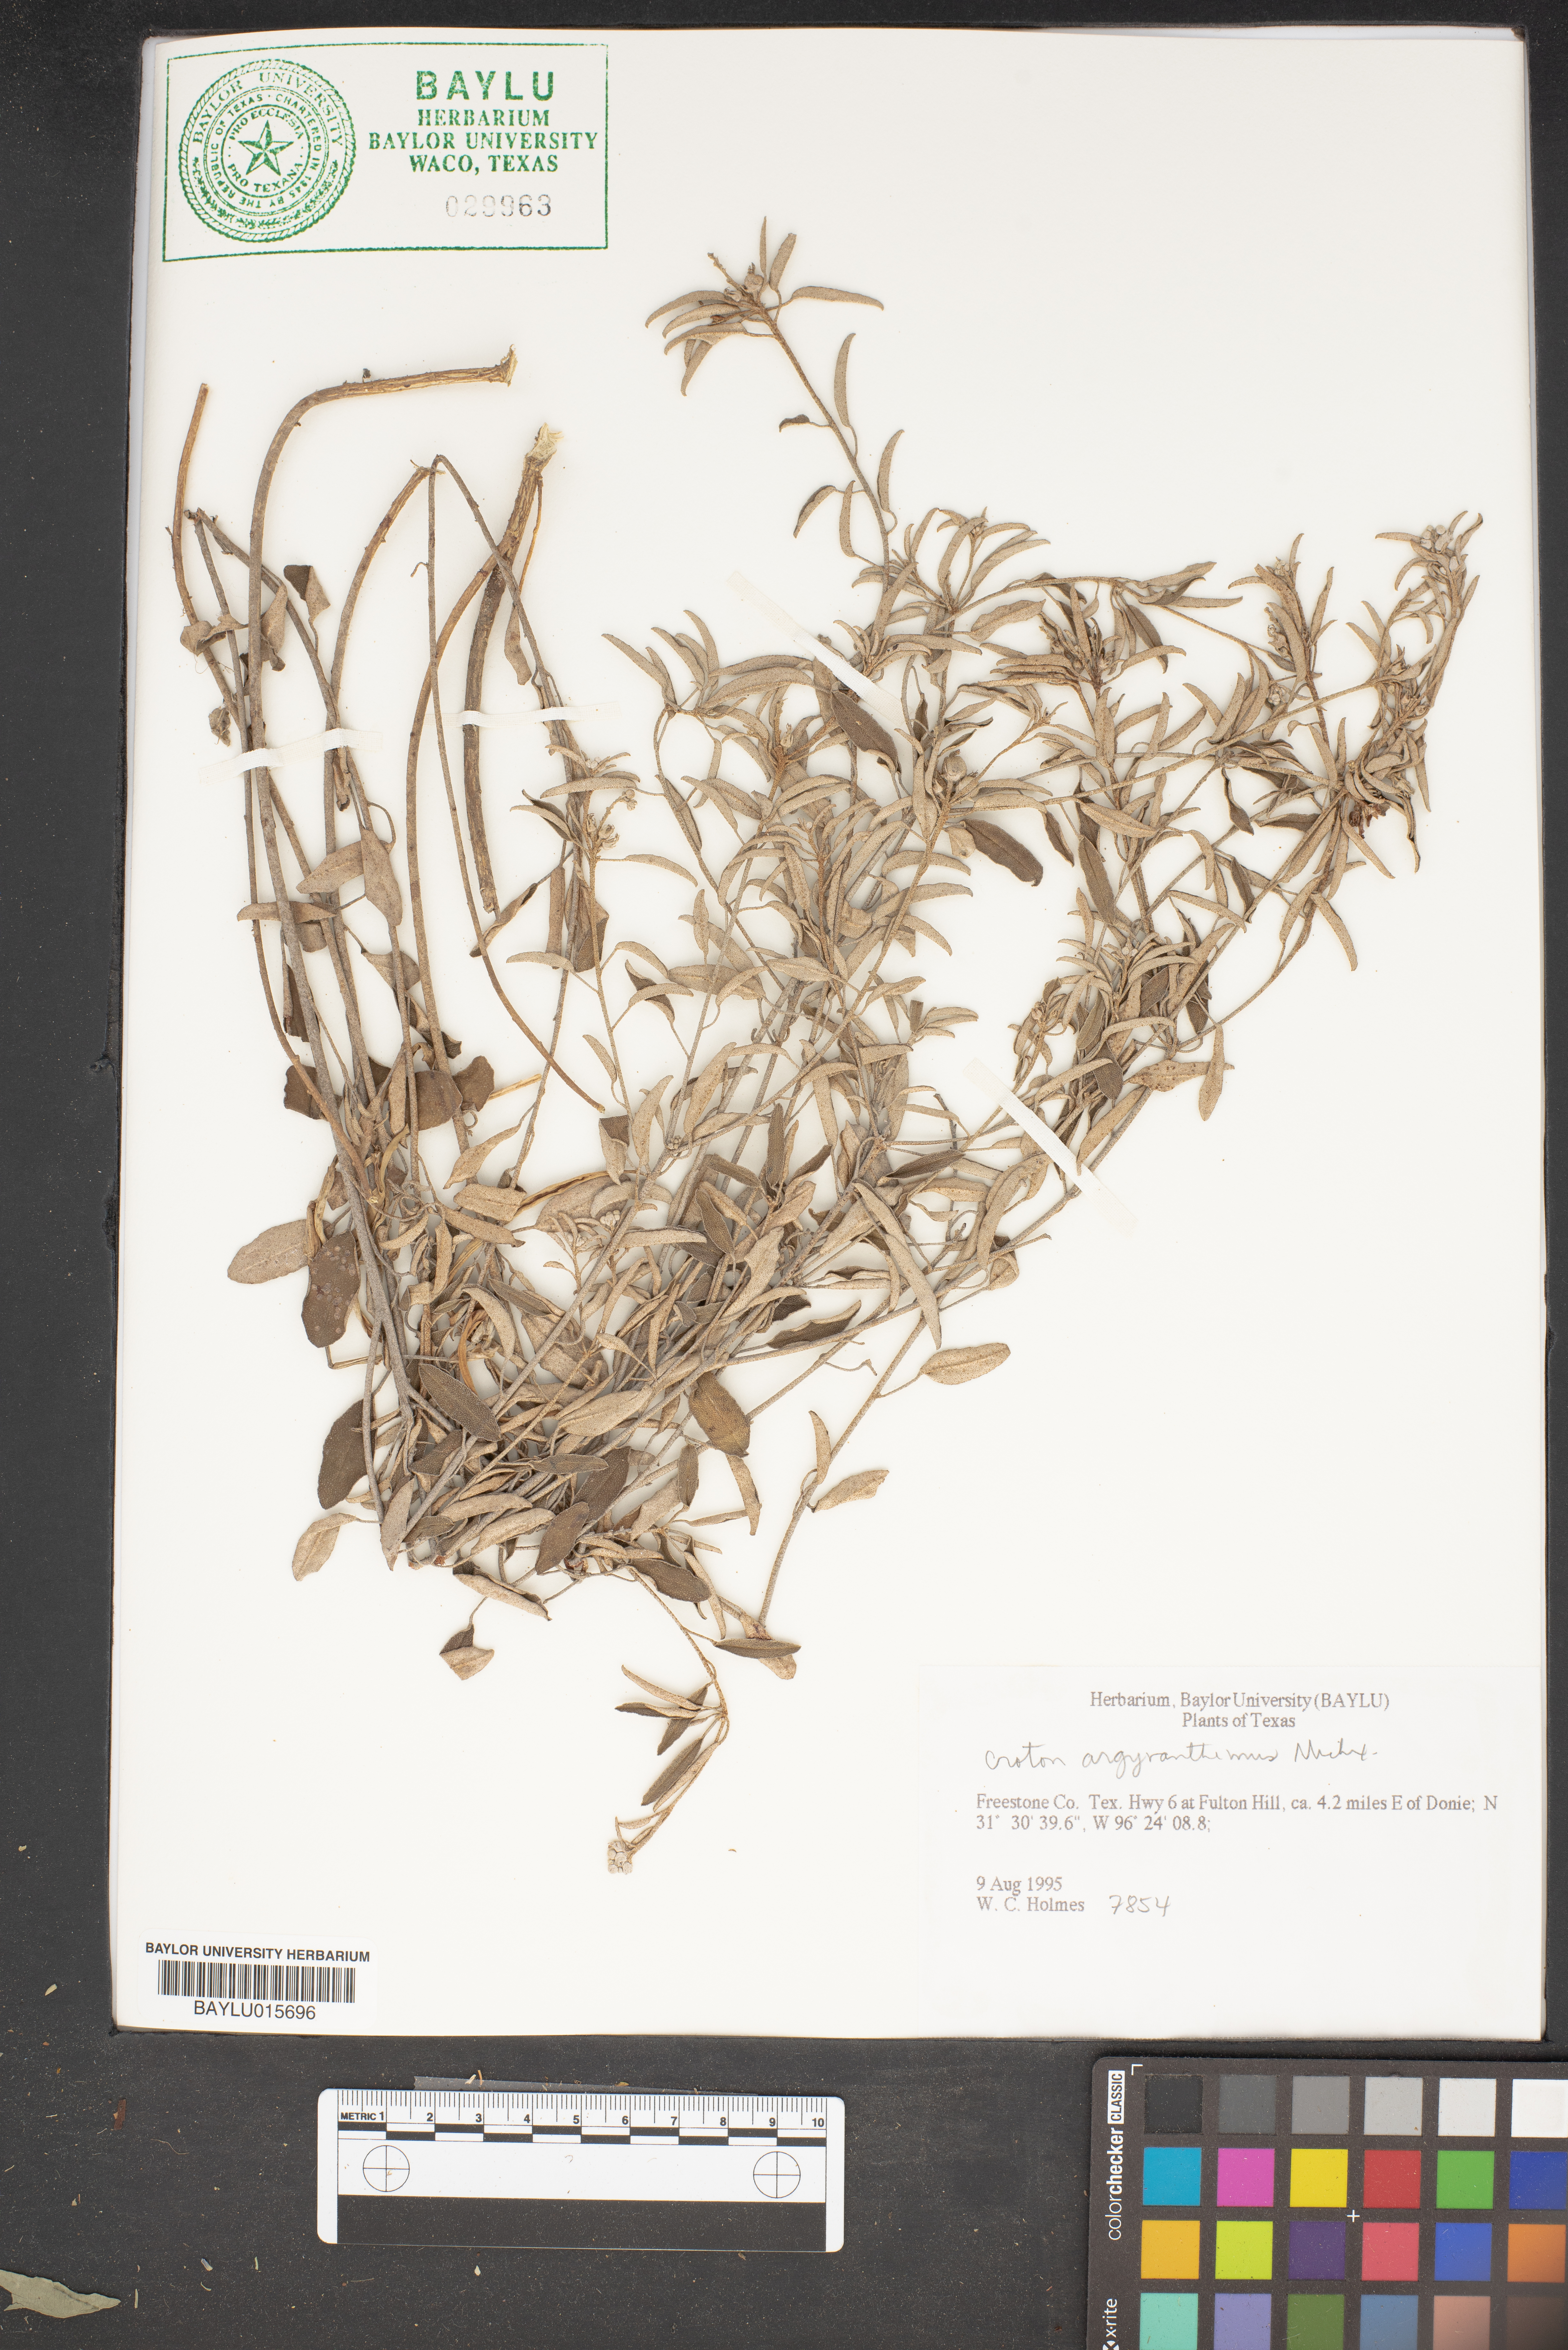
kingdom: Plantae
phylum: Tracheophyta
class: Magnoliopsida
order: Malpighiales
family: Euphorbiaceae
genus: Croton
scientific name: Croton argyranthemus
